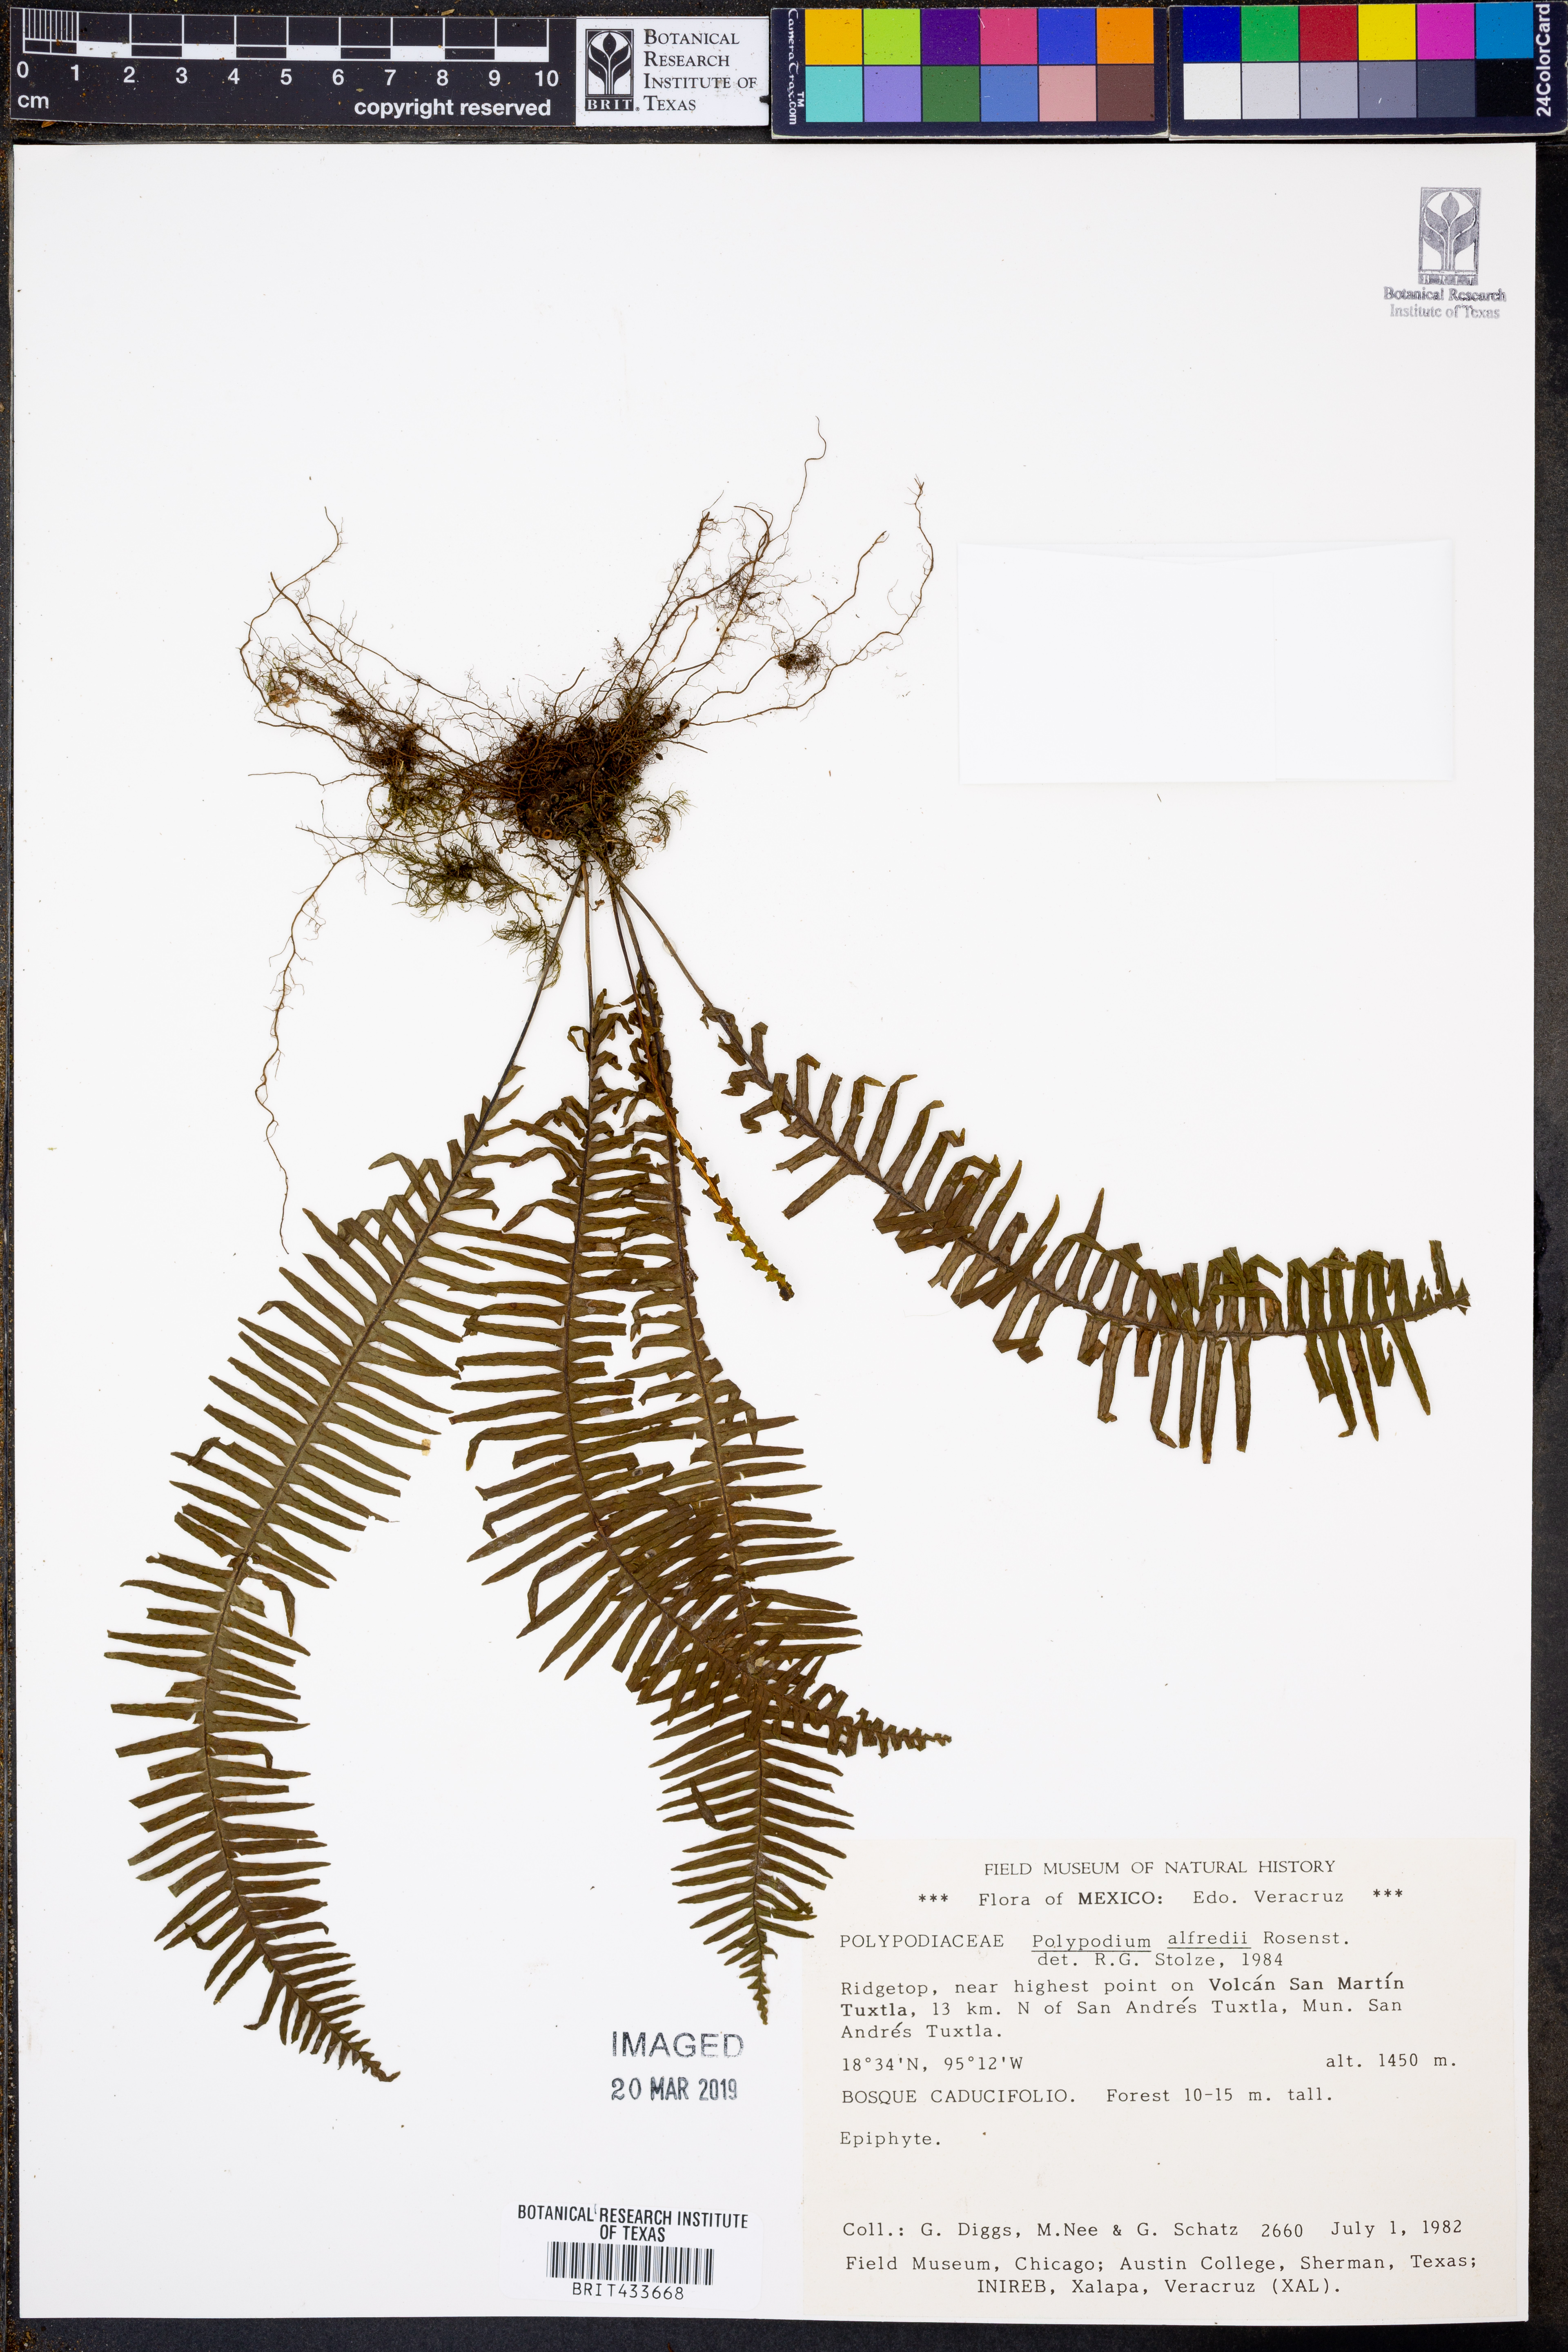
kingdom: Plantae
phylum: Tracheophyta
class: Polypodiopsida
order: Polypodiales
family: Polypodiaceae
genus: Pecluma
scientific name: Pecluma alfredii
